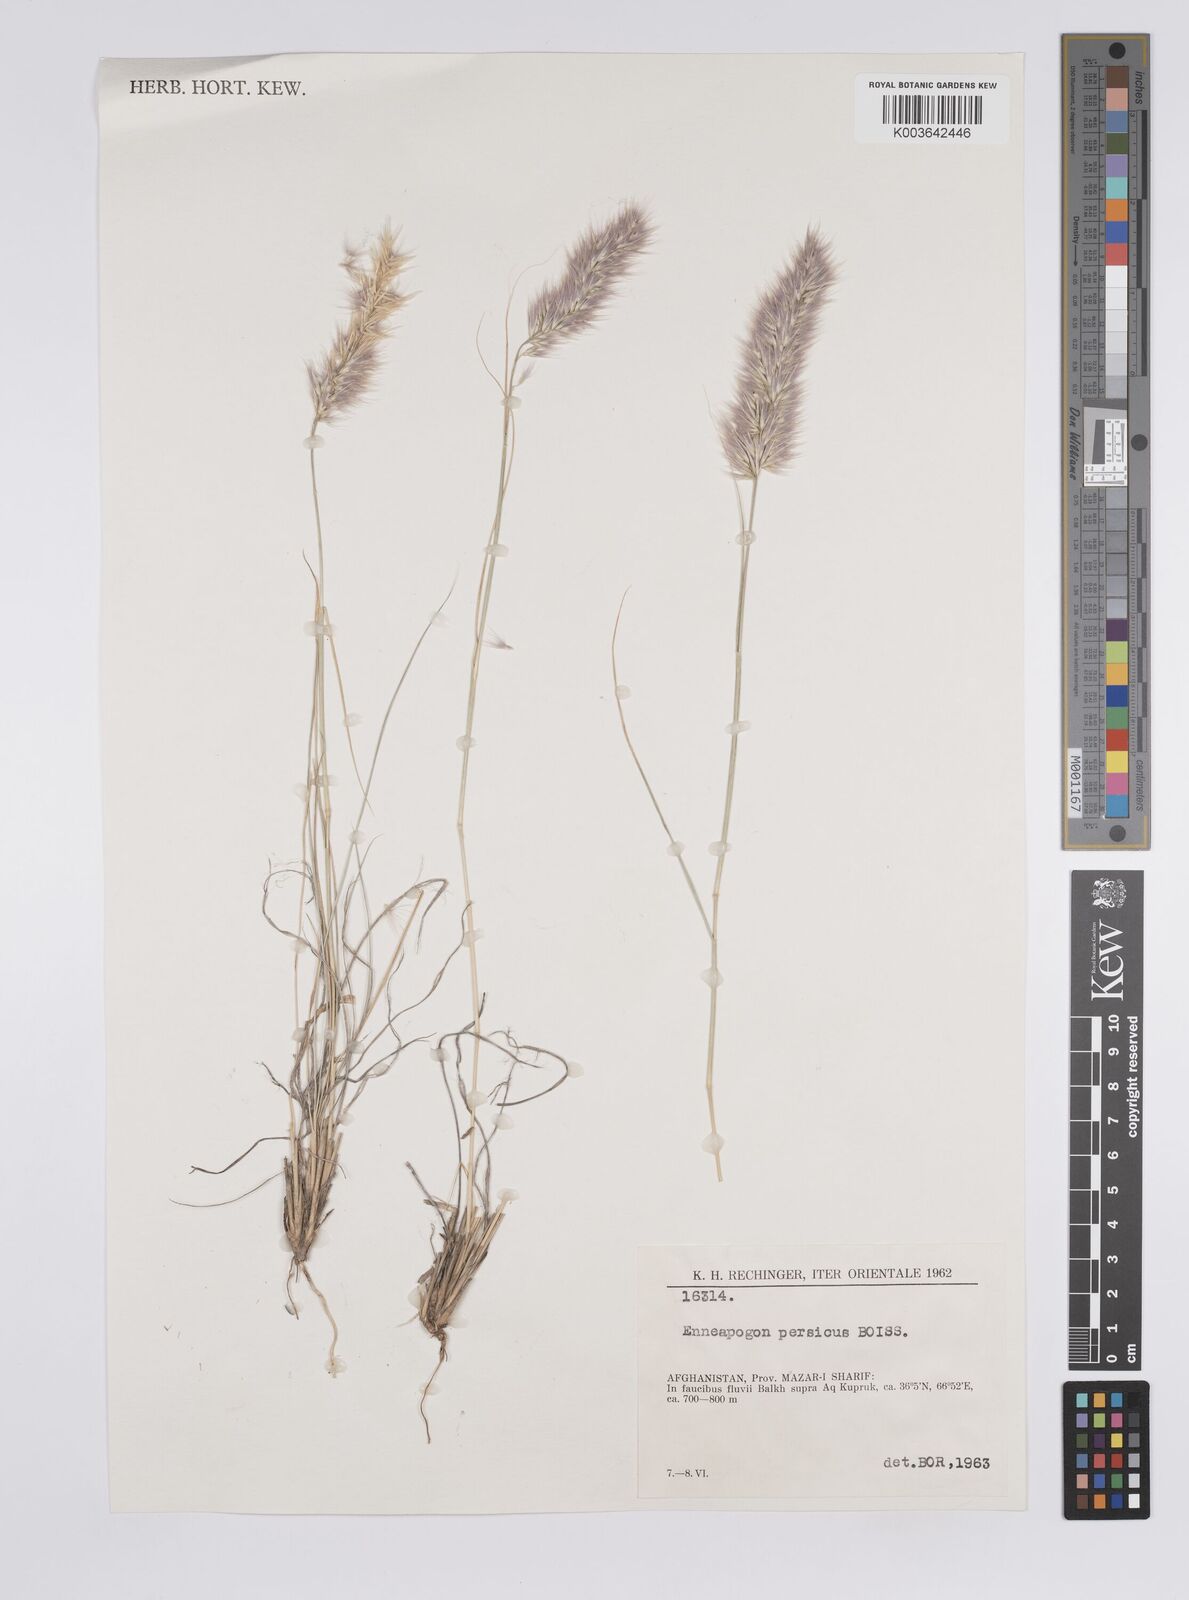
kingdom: Plantae
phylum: Tracheophyta
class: Liliopsida
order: Poales
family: Poaceae
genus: Enneapogon
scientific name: Enneapogon persicus
